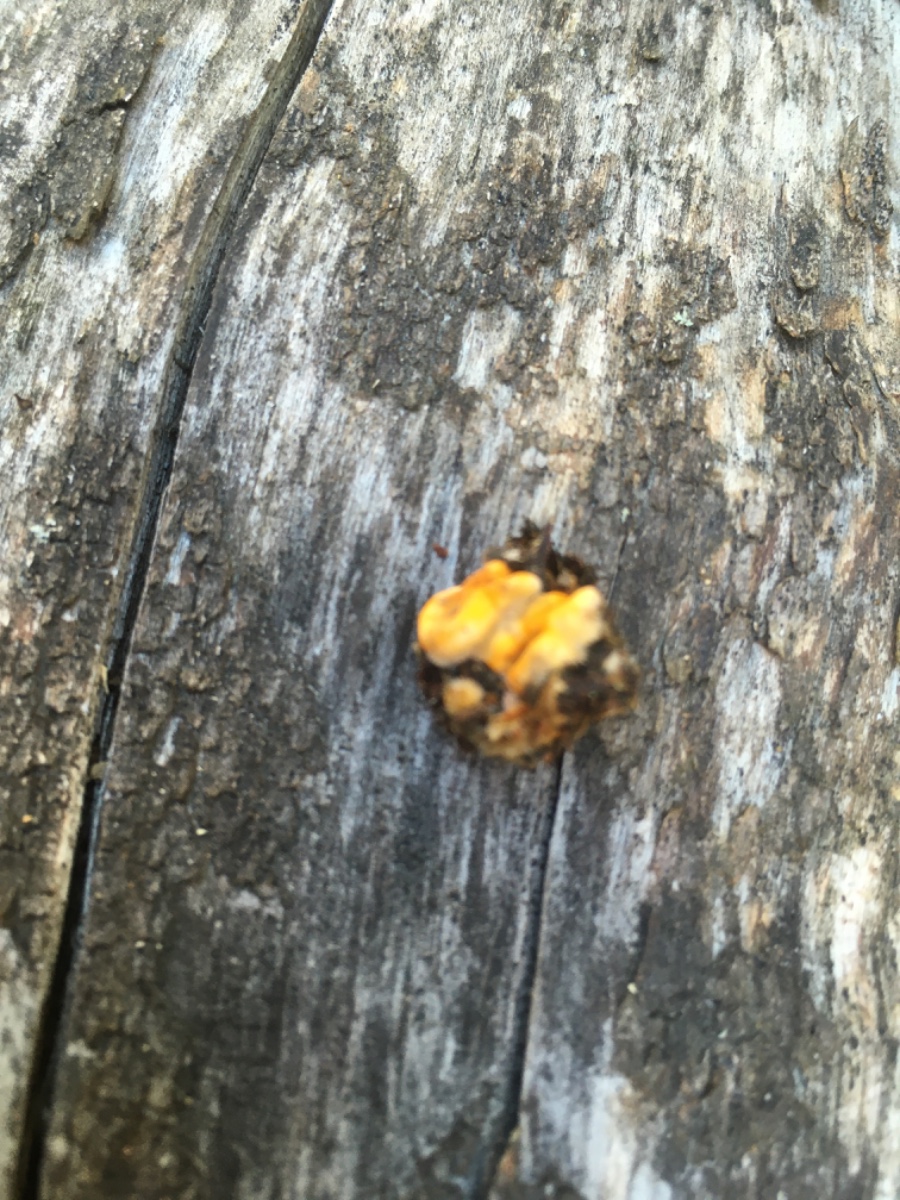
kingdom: Fungi
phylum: Basidiomycota
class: Agaricomycetes
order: Russulales
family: Stereaceae
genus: Stereum
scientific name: Stereum hirsutum
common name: håret lædersvamp
